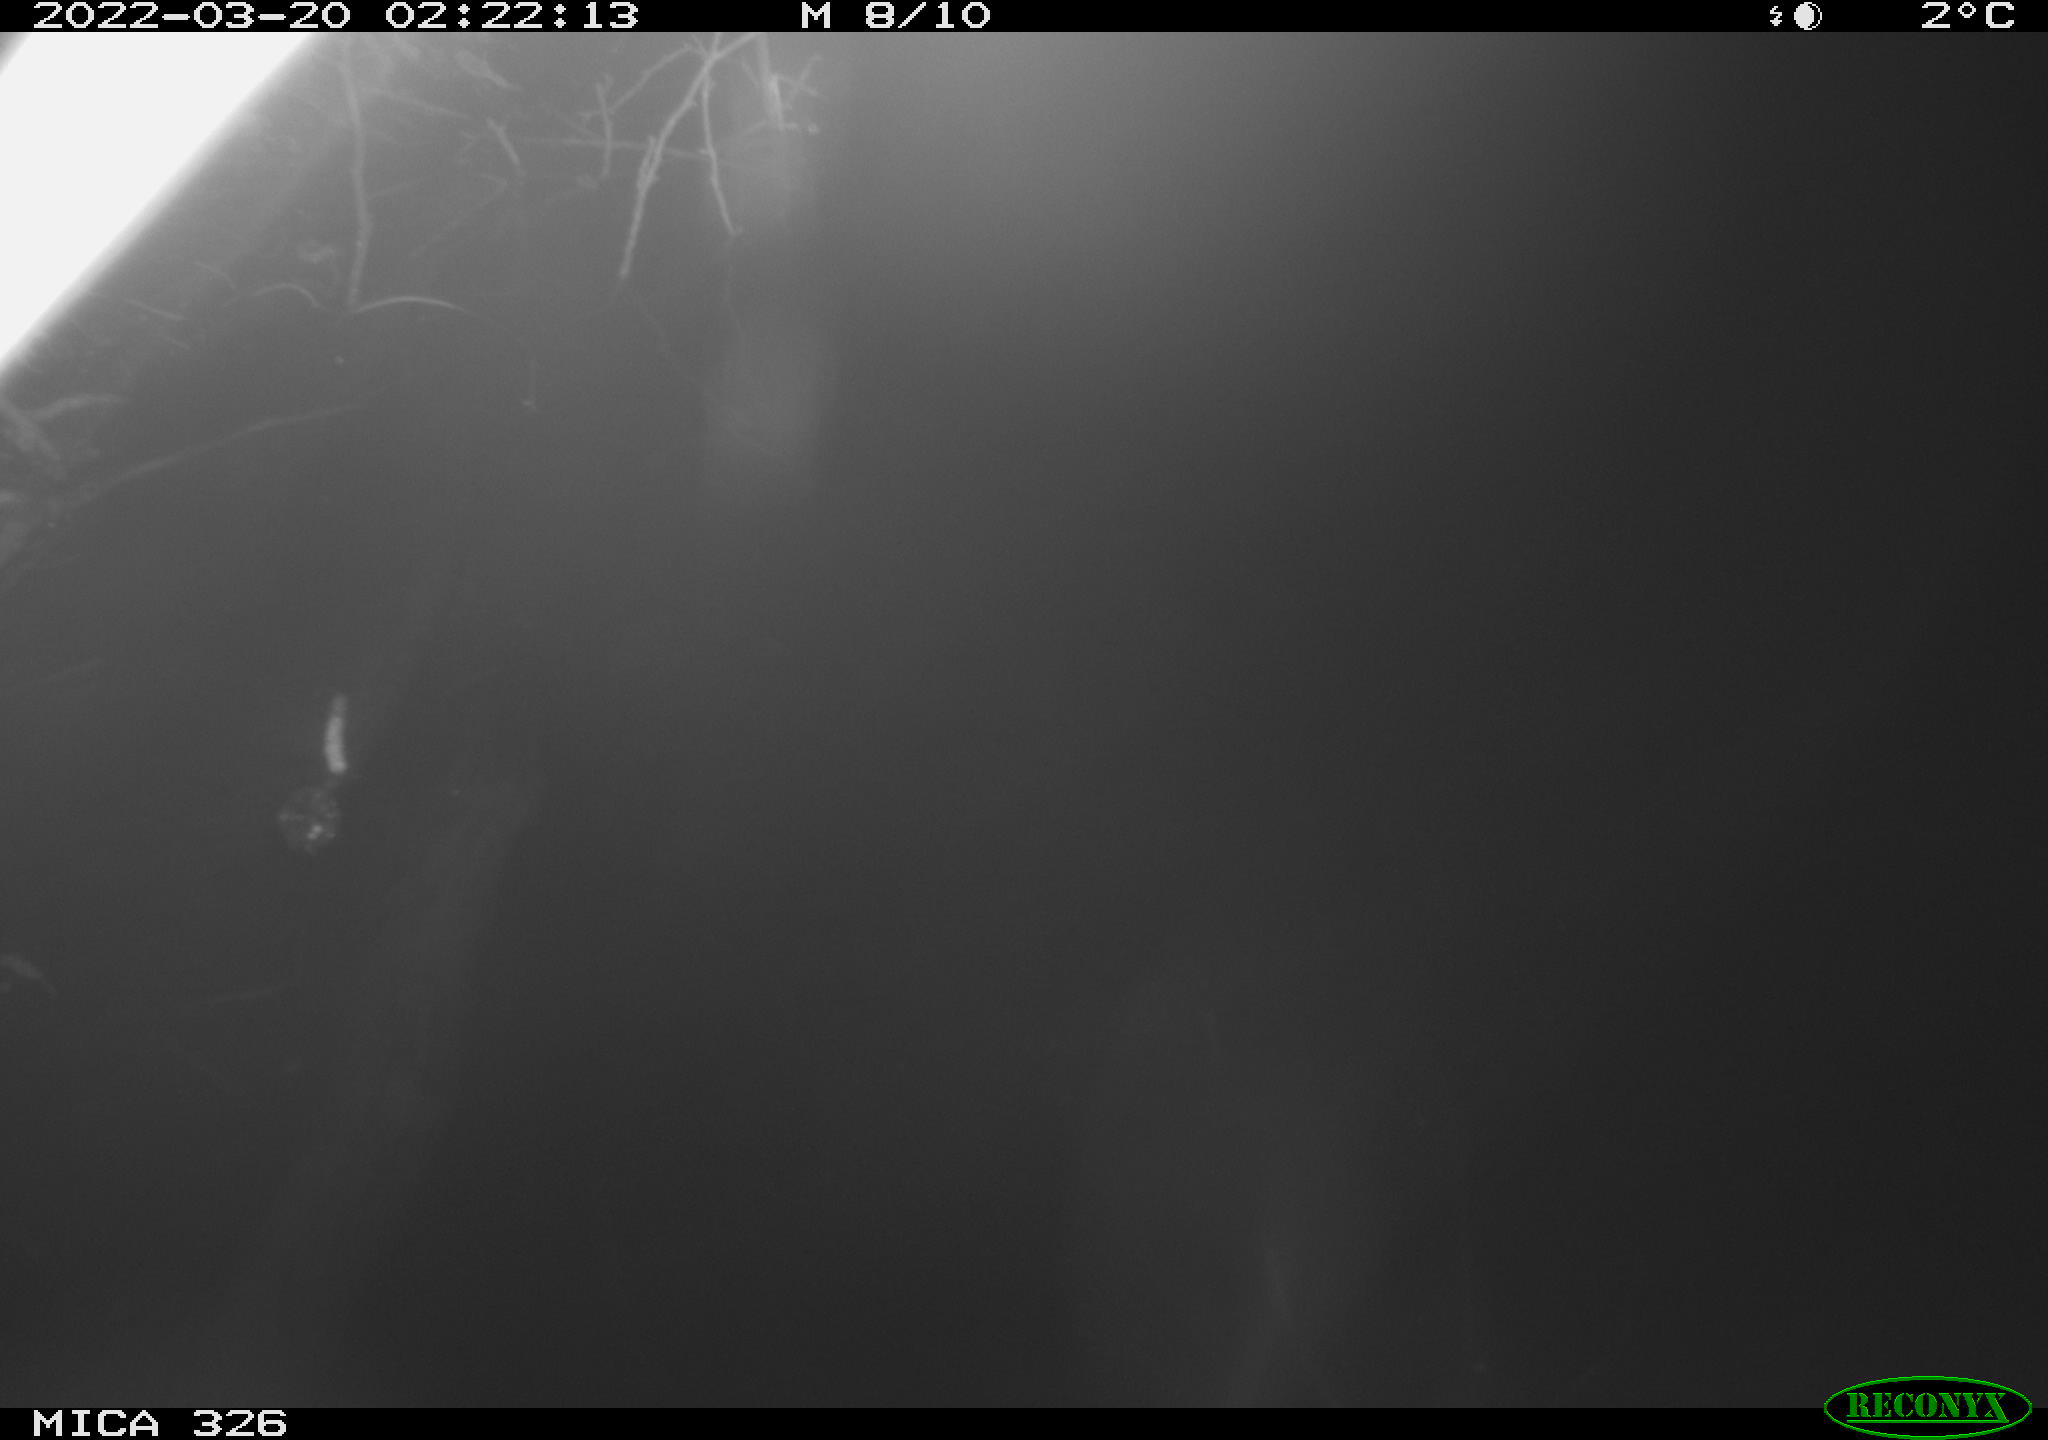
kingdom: Animalia
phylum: Chordata
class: Mammalia
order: Rodentia
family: Cricetidae
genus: Ondatra
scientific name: Ondatra zibethicus
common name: Muskrat
